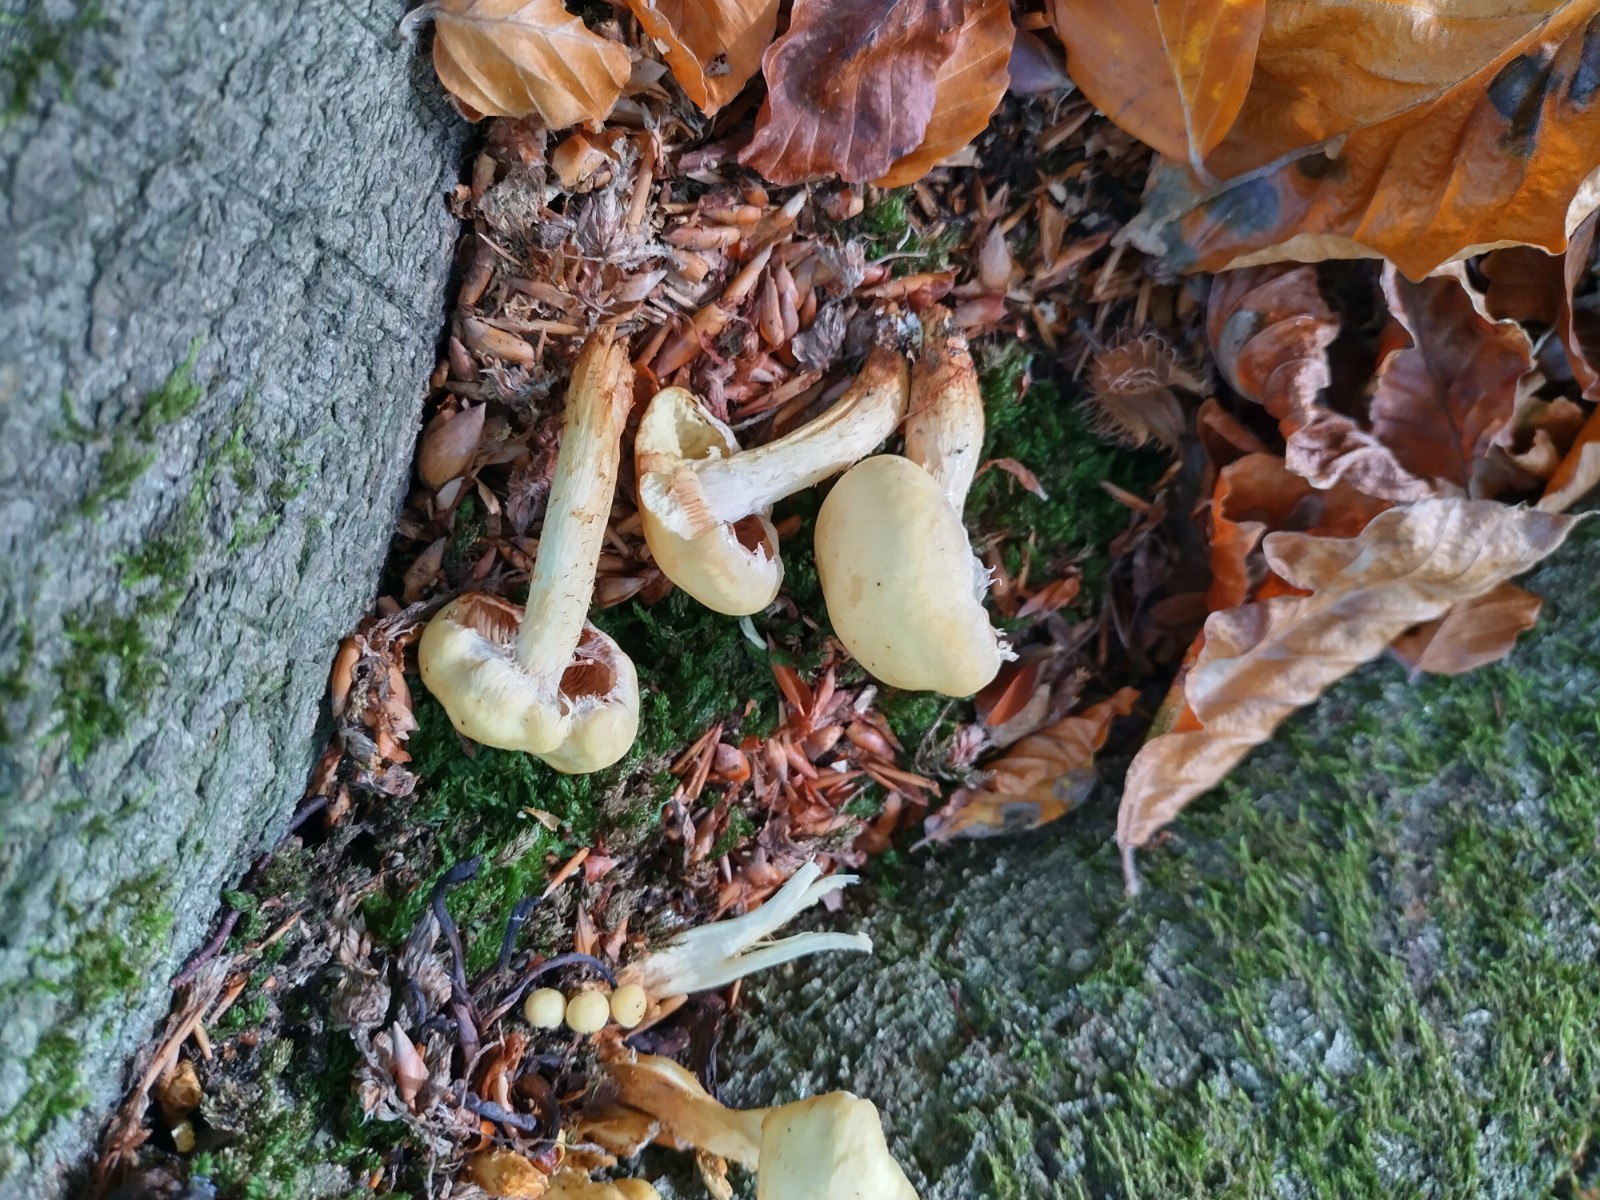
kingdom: Fungi
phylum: Basidiomycota
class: Agaricomycetes
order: Agaricales
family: Strophariaceae
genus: Pholiota
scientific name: Pholiota
